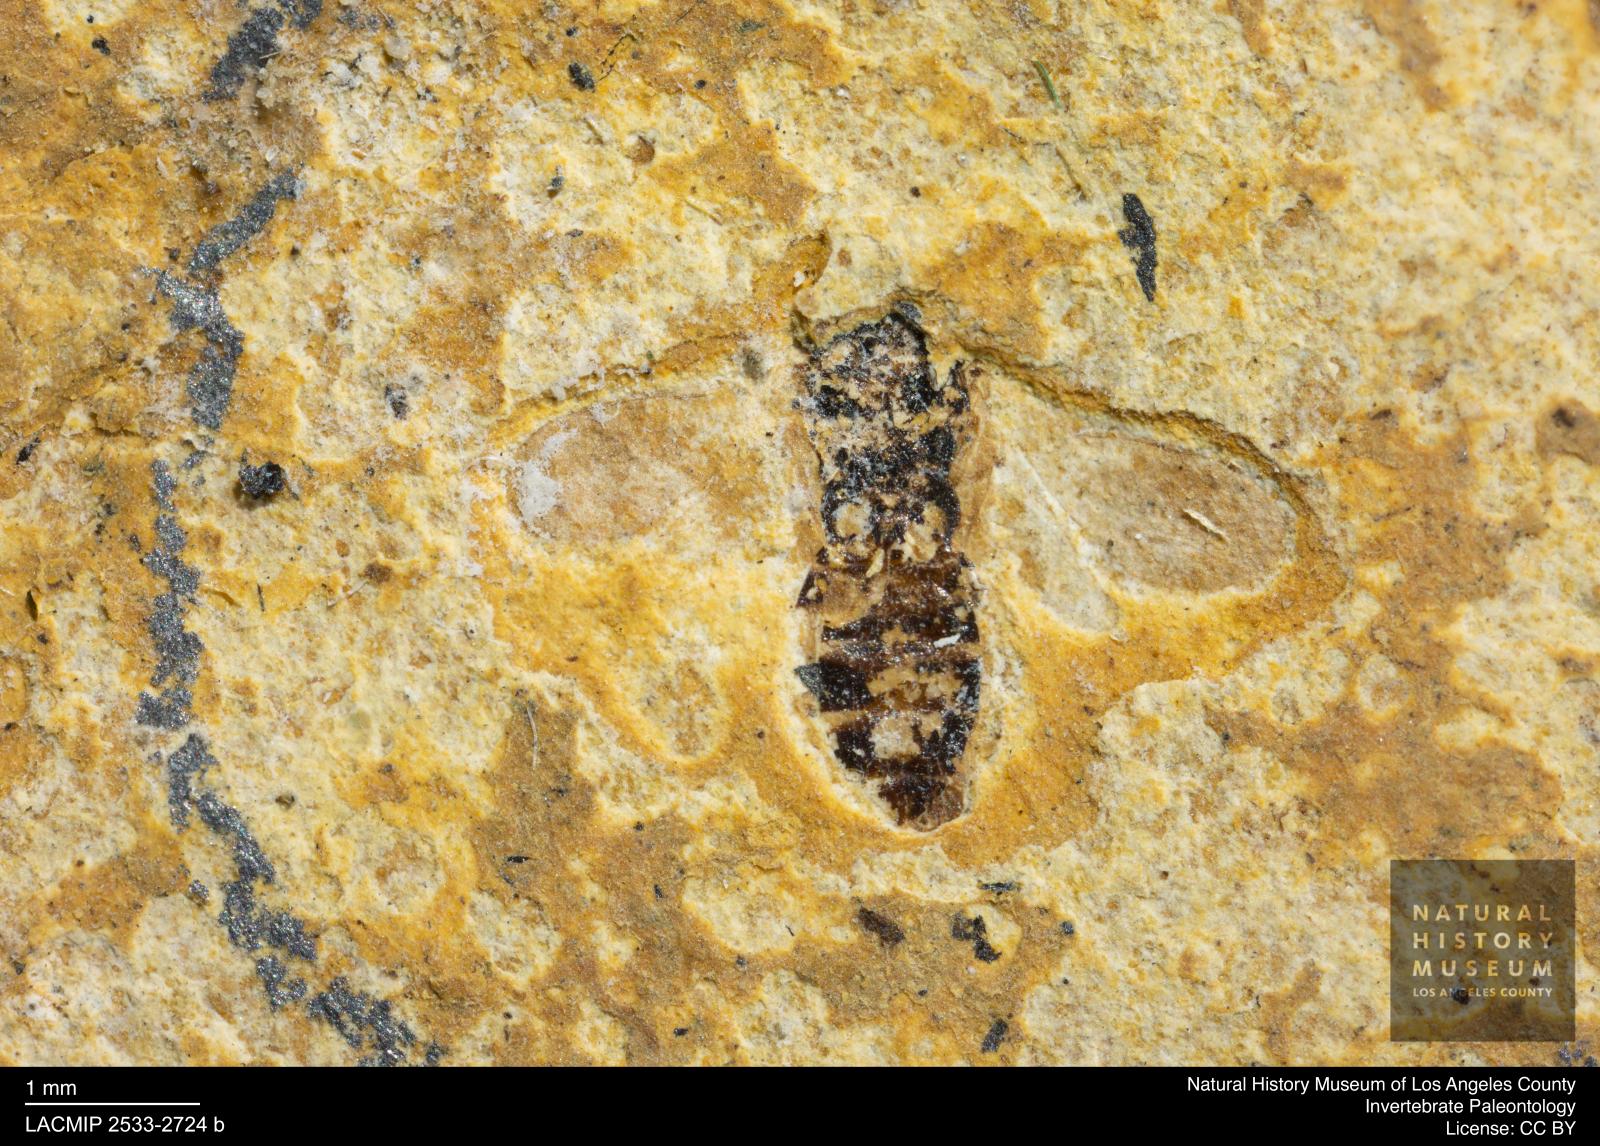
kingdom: Animalia
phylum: Arthropoda
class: Insecta
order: Hymenoptera
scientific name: Hymenoptera
